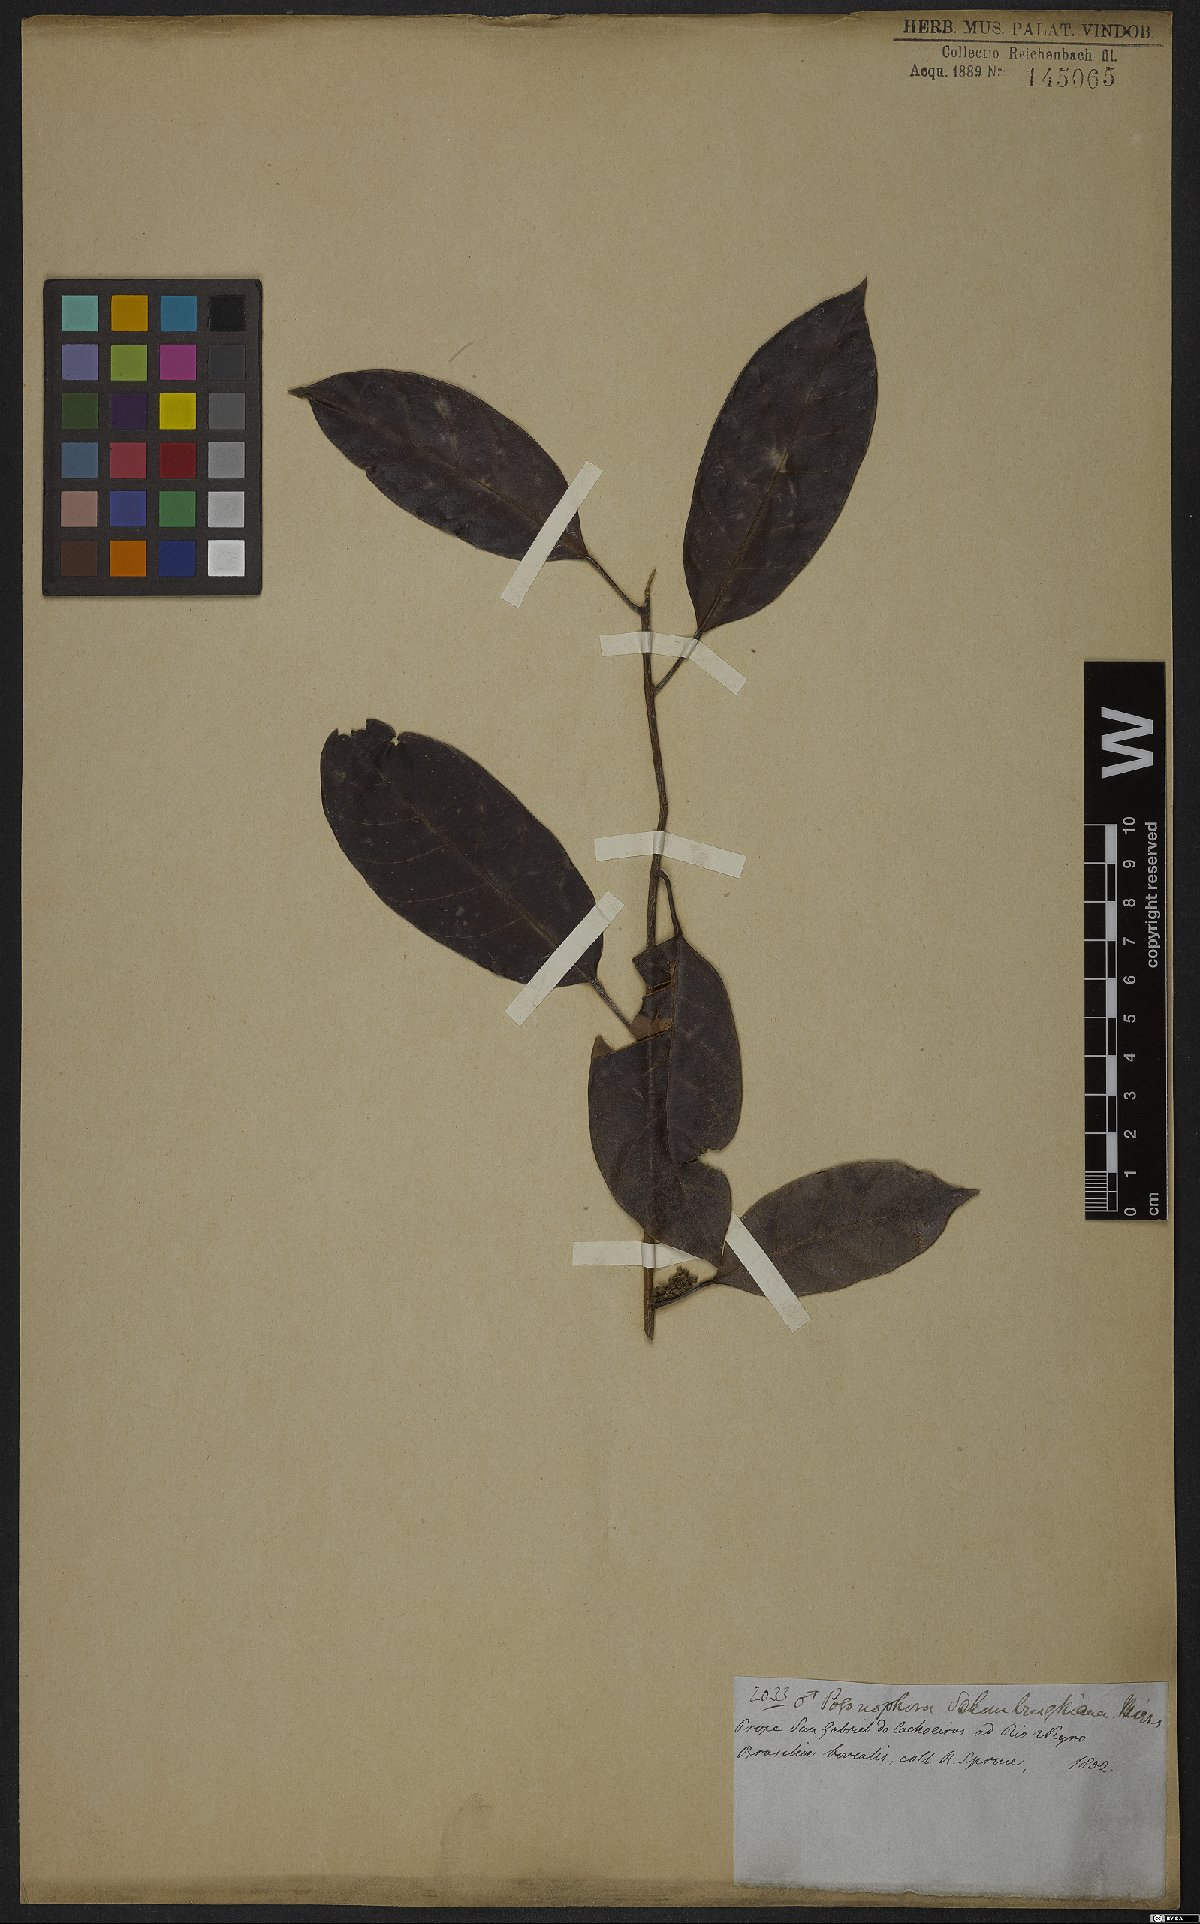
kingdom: Plantae
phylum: Tracheophyta
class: Magnoliopsida
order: Malpighiales
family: Peraceae
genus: Pogonophora
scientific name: Pogonophora schomburgkiana
